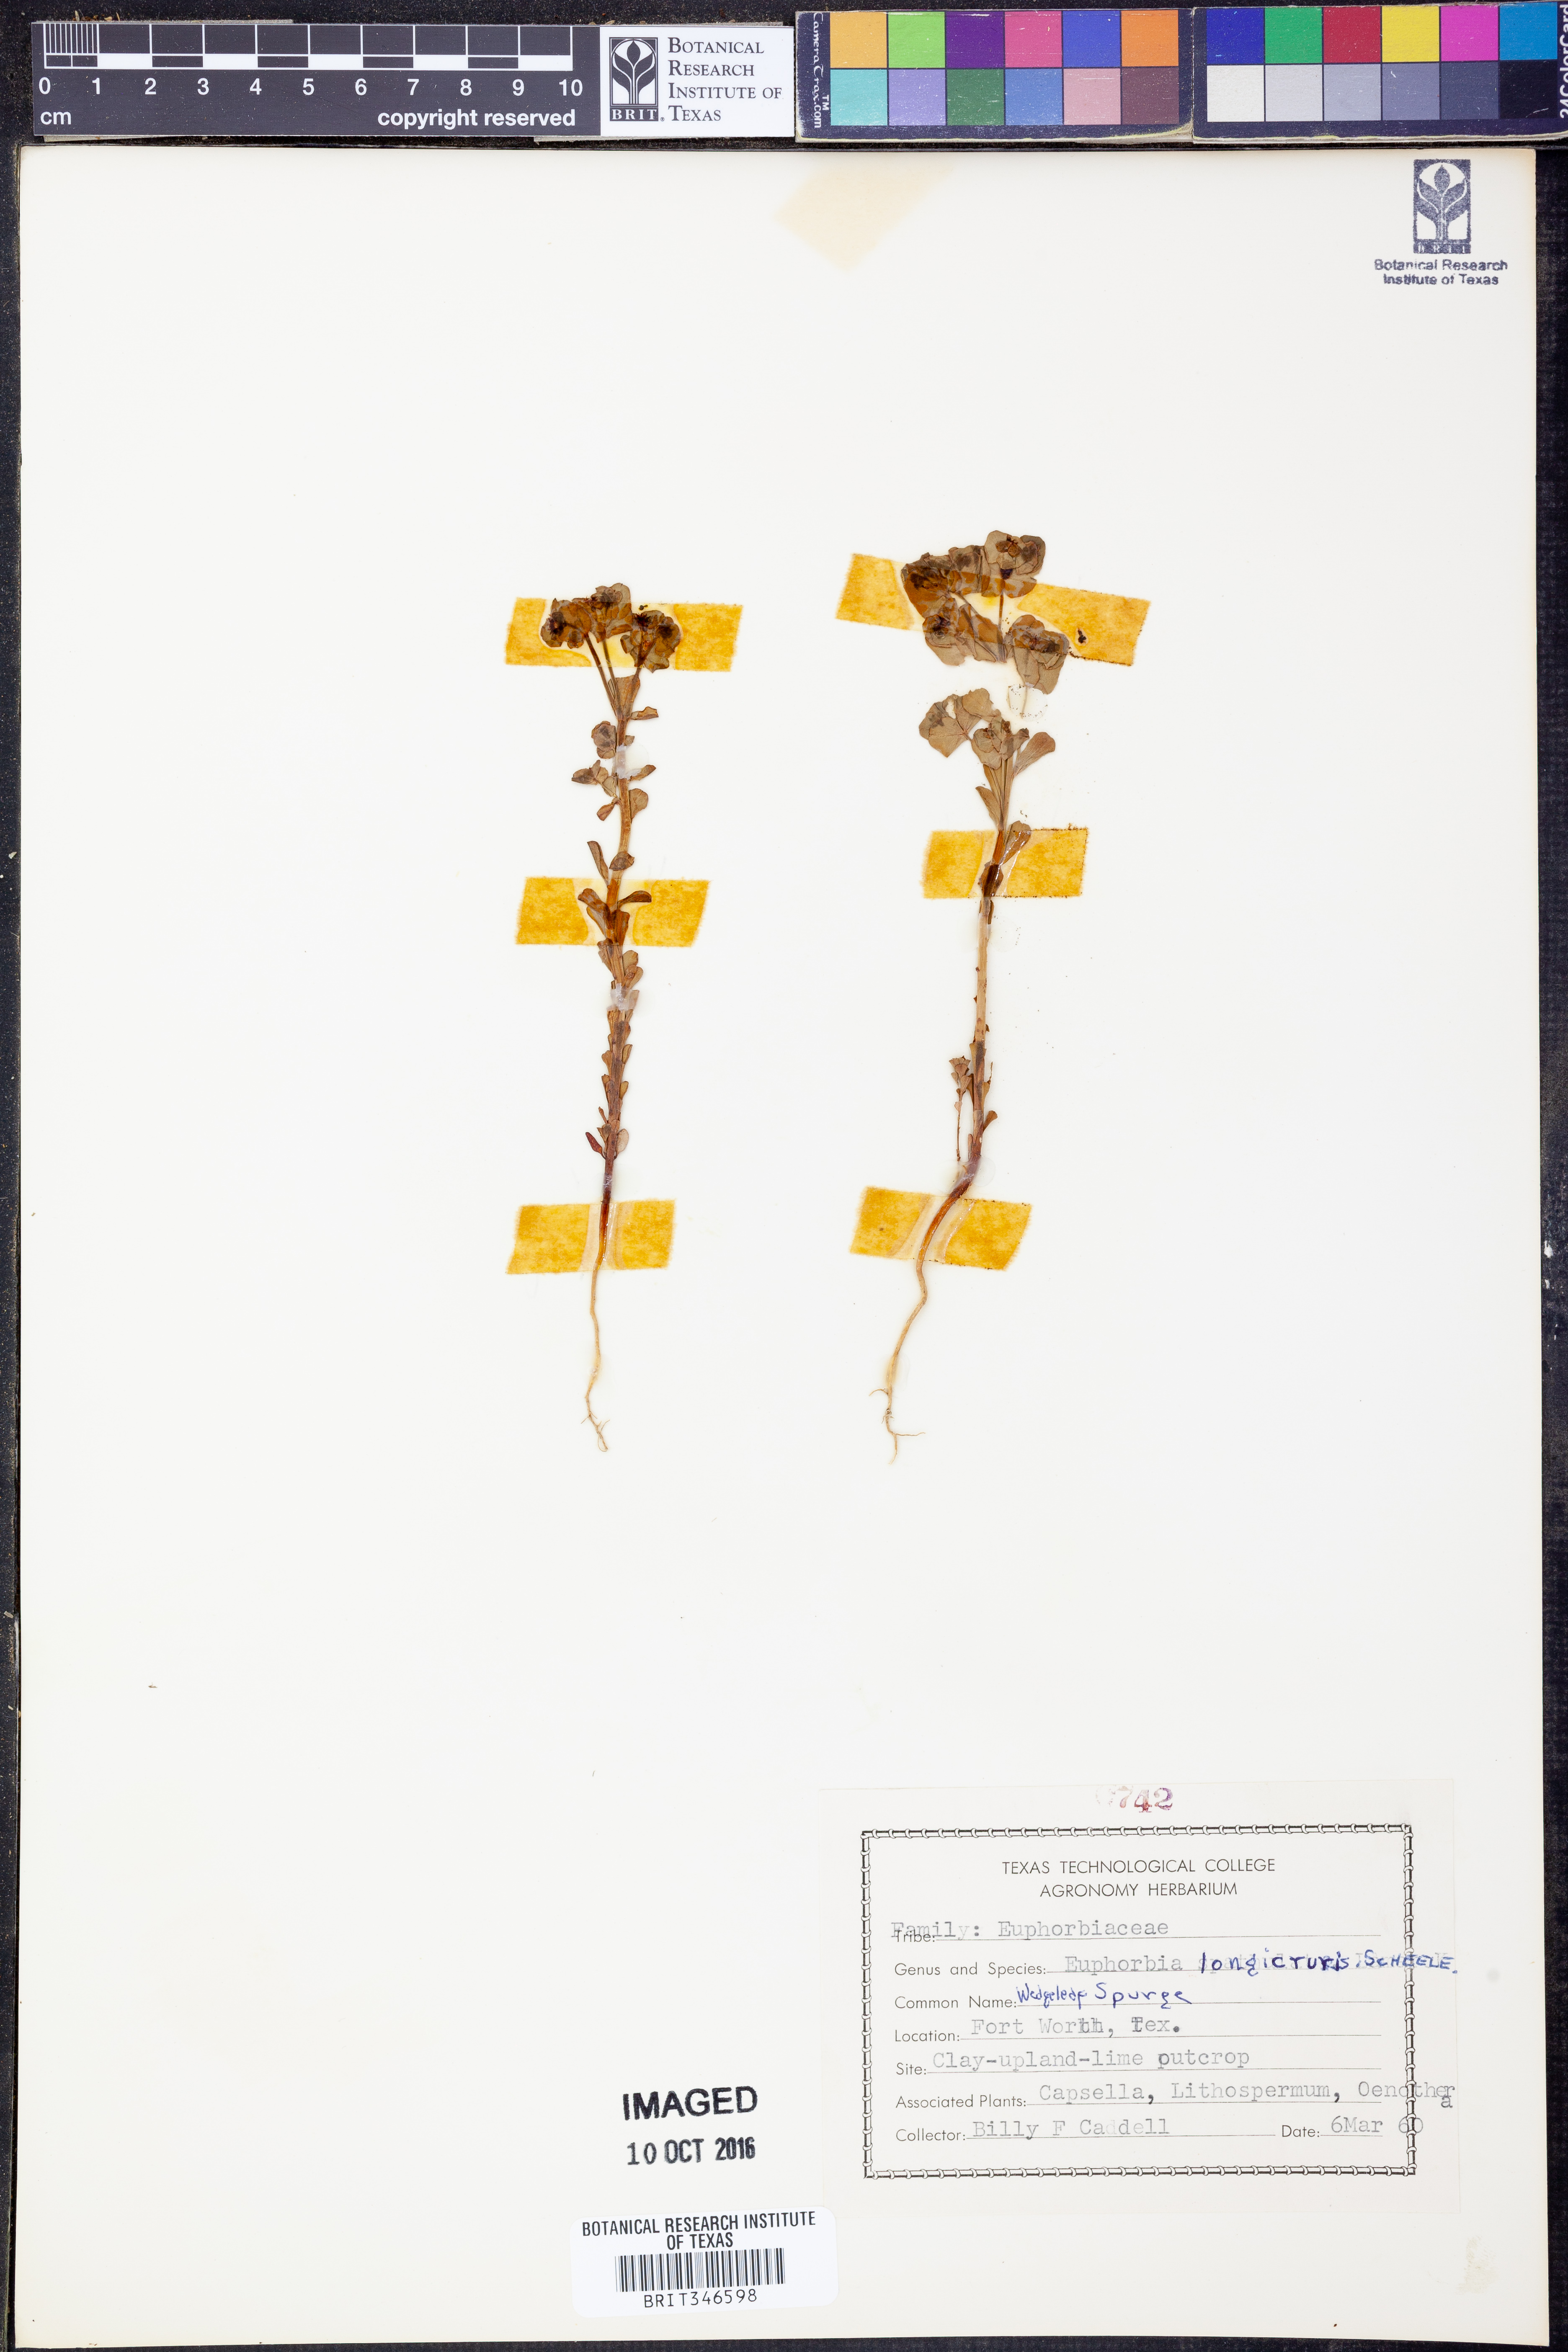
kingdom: Plantae
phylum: Tracheophyta
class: Magnoliopsida
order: Malpighiales
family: Euphorbiaceae
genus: Euphorbia
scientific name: Euphorbia longicruris
